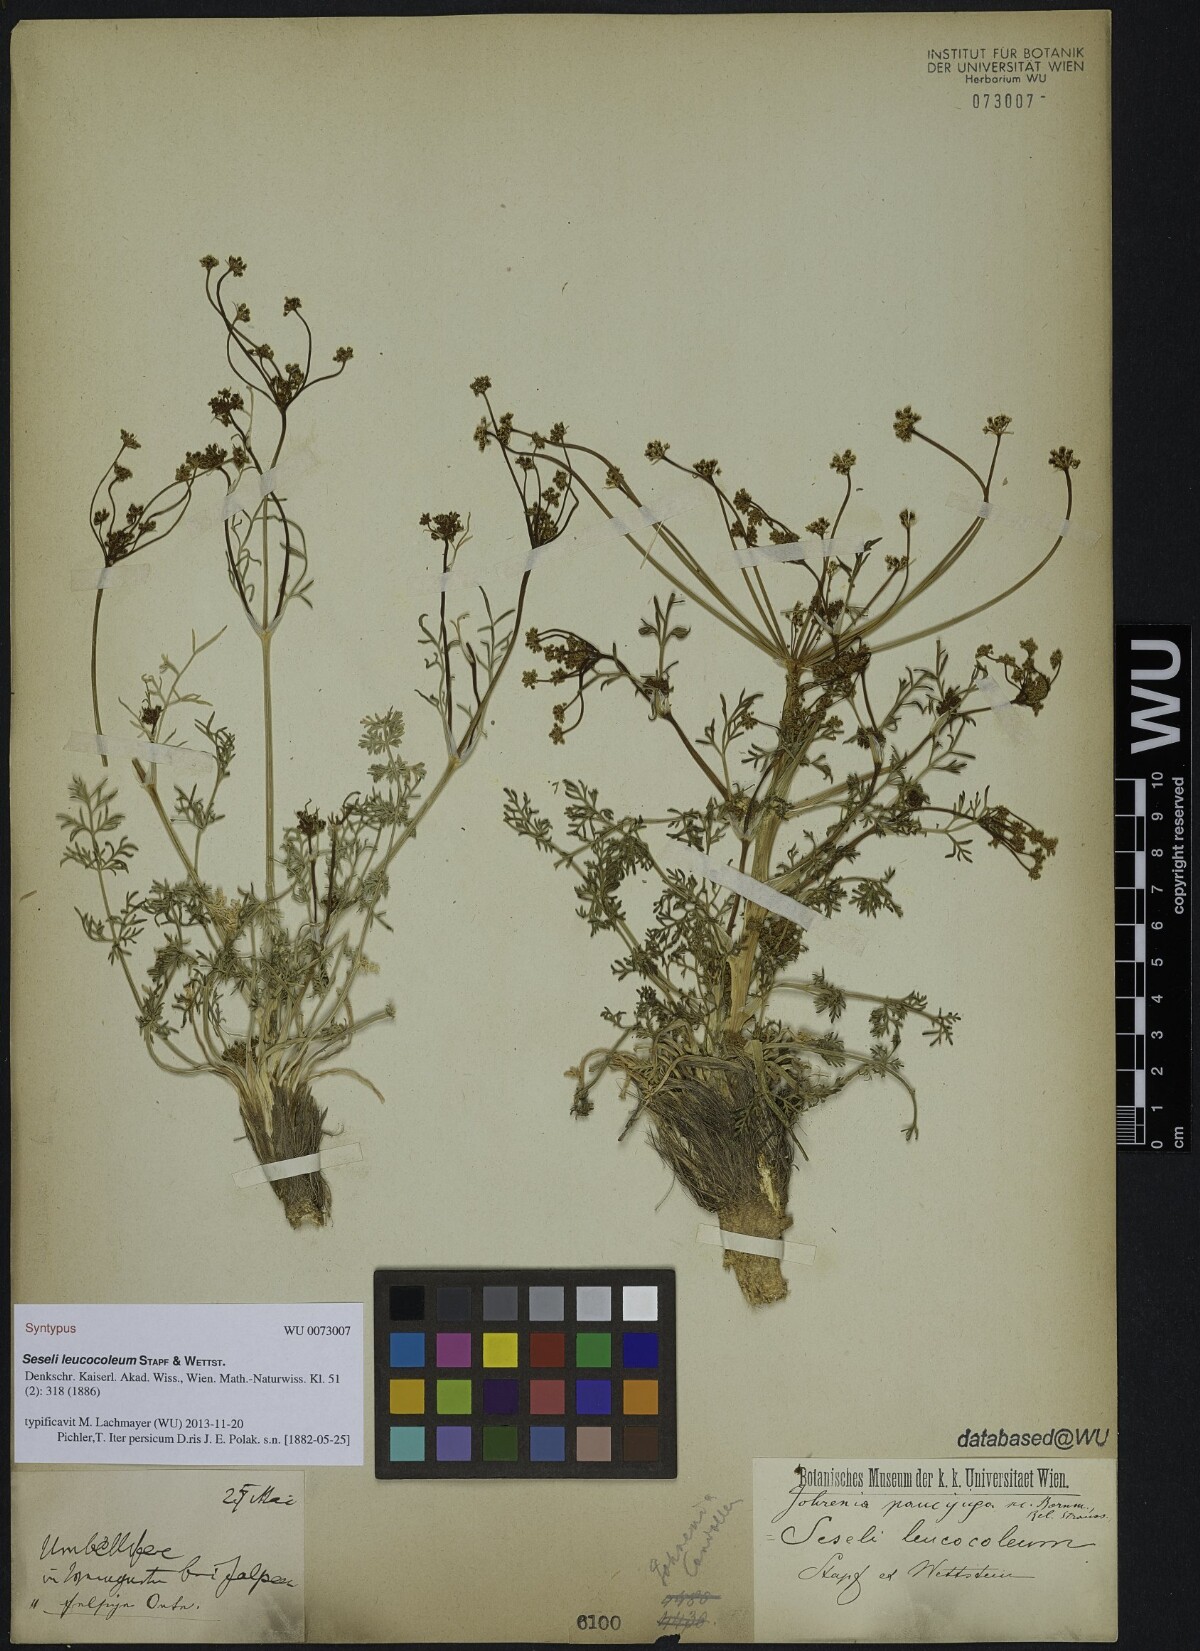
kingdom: Plantae
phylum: Tracheophyta
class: Magnoliopsida
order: Apiales
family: Apiaceae
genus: Dichoropetalum
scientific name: Dichoropetalum paucijugum
